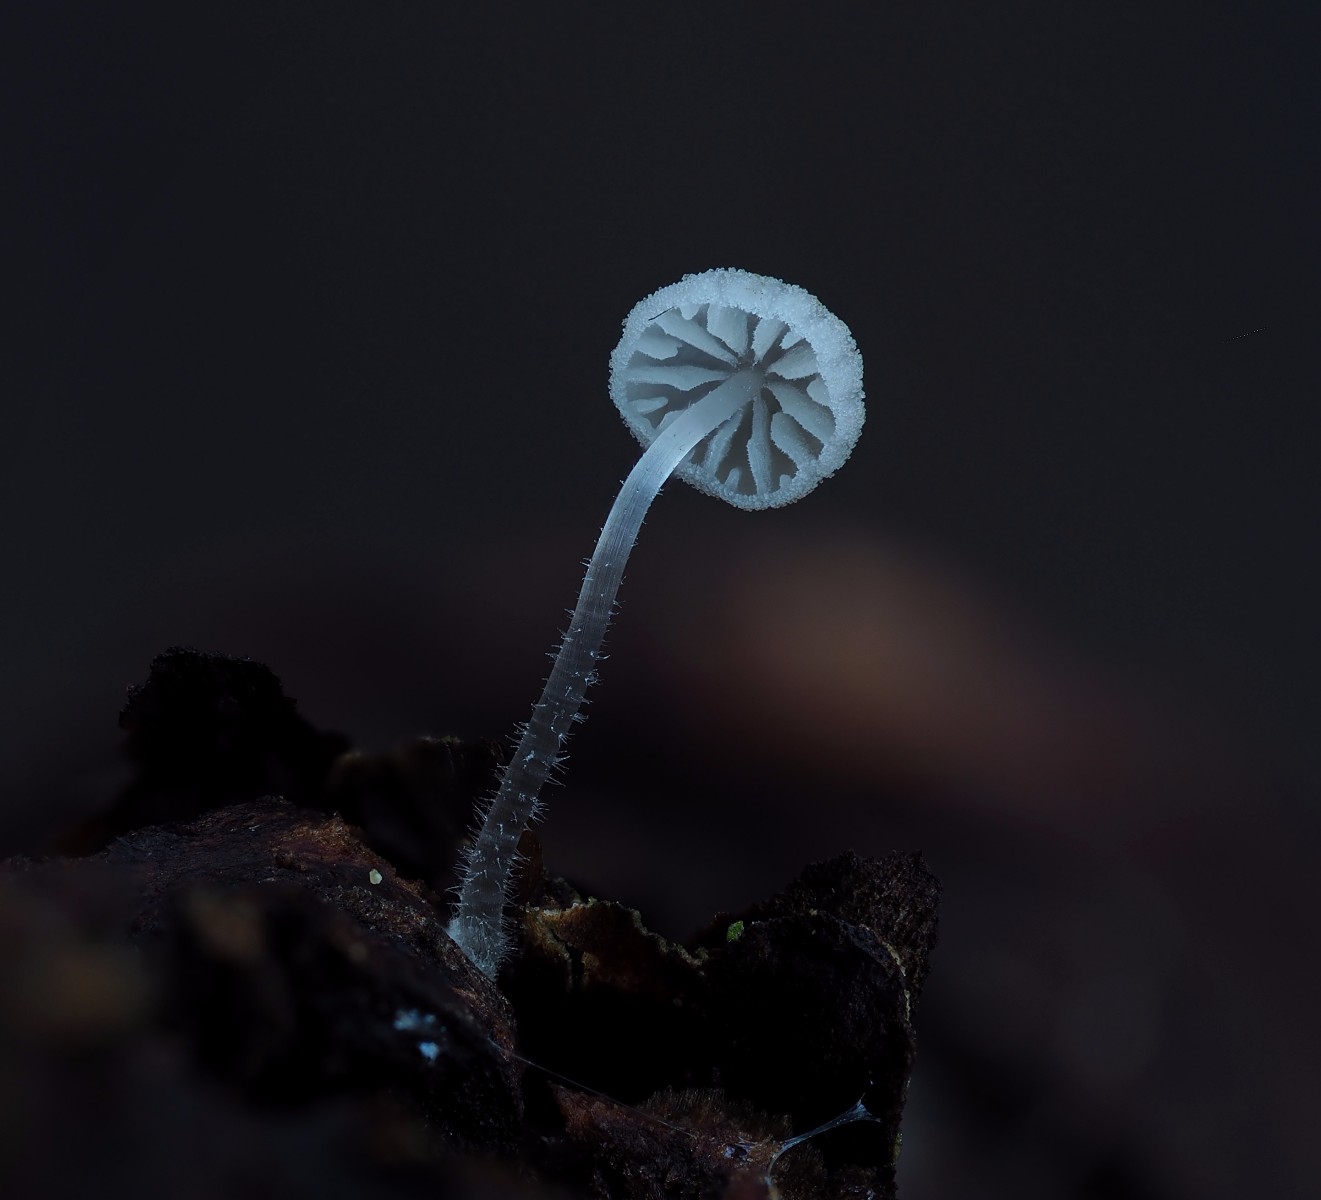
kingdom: Fungi
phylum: Basidiomycota
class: Agaricomycetes
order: Agaricales
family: Mycenaceae
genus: Mycena
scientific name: Mycena tenerrima
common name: pudret huesvamp
